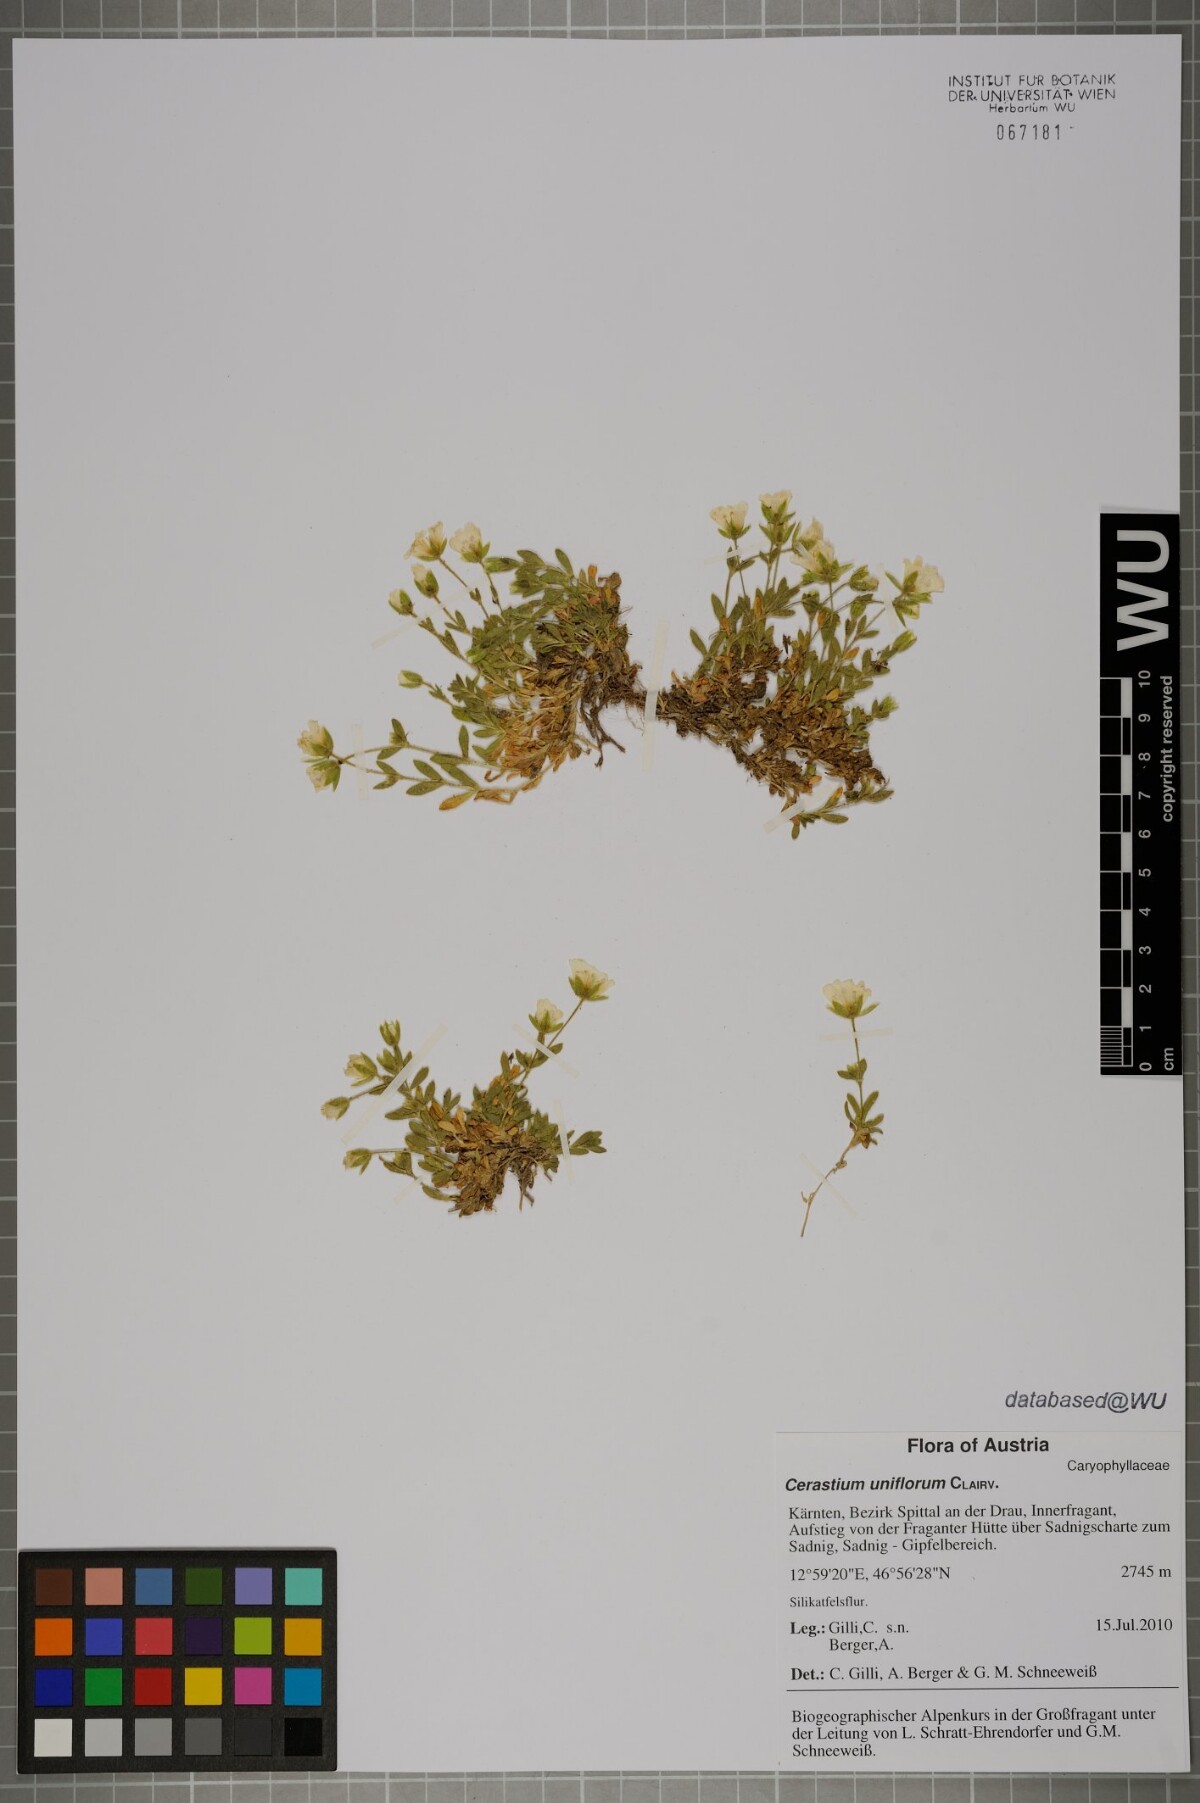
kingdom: Plantae
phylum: Tracheophyta
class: Magnoliopsida
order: Caryophyllales
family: Caryophyllaceae
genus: Cerastium
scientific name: Cerastium uniflorum
